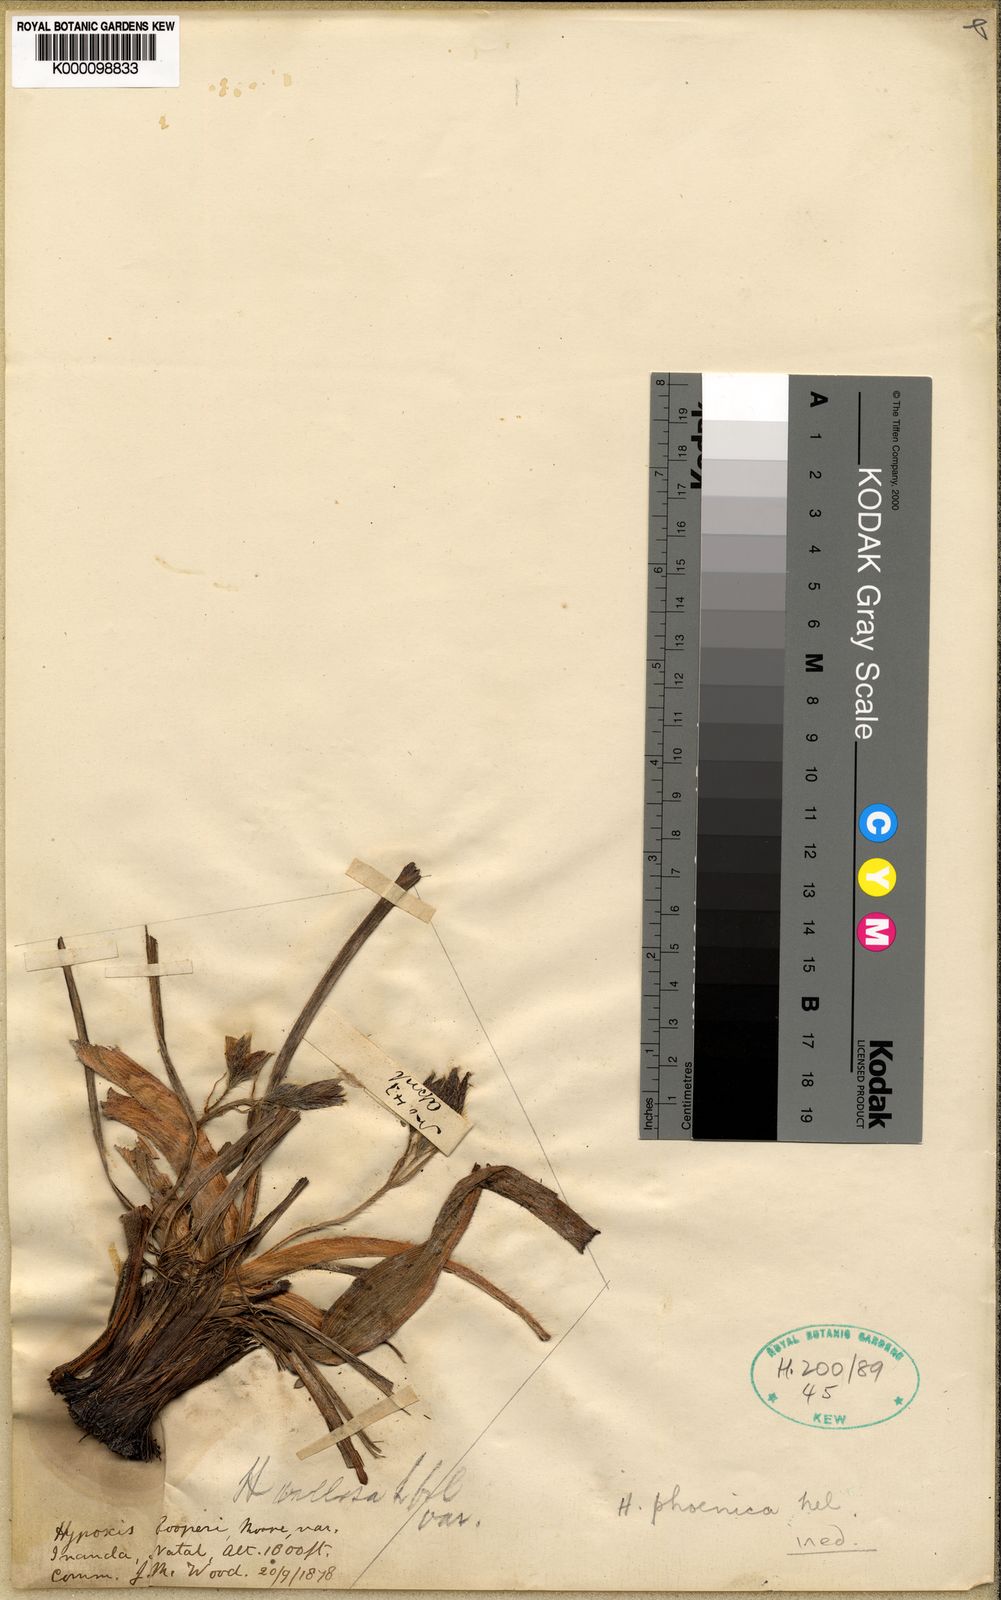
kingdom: Plantae
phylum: Tracheophyta
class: Liliopsida
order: Asparagales
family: Hypoxidaceae
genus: Hypoxis
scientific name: Hypoxis
